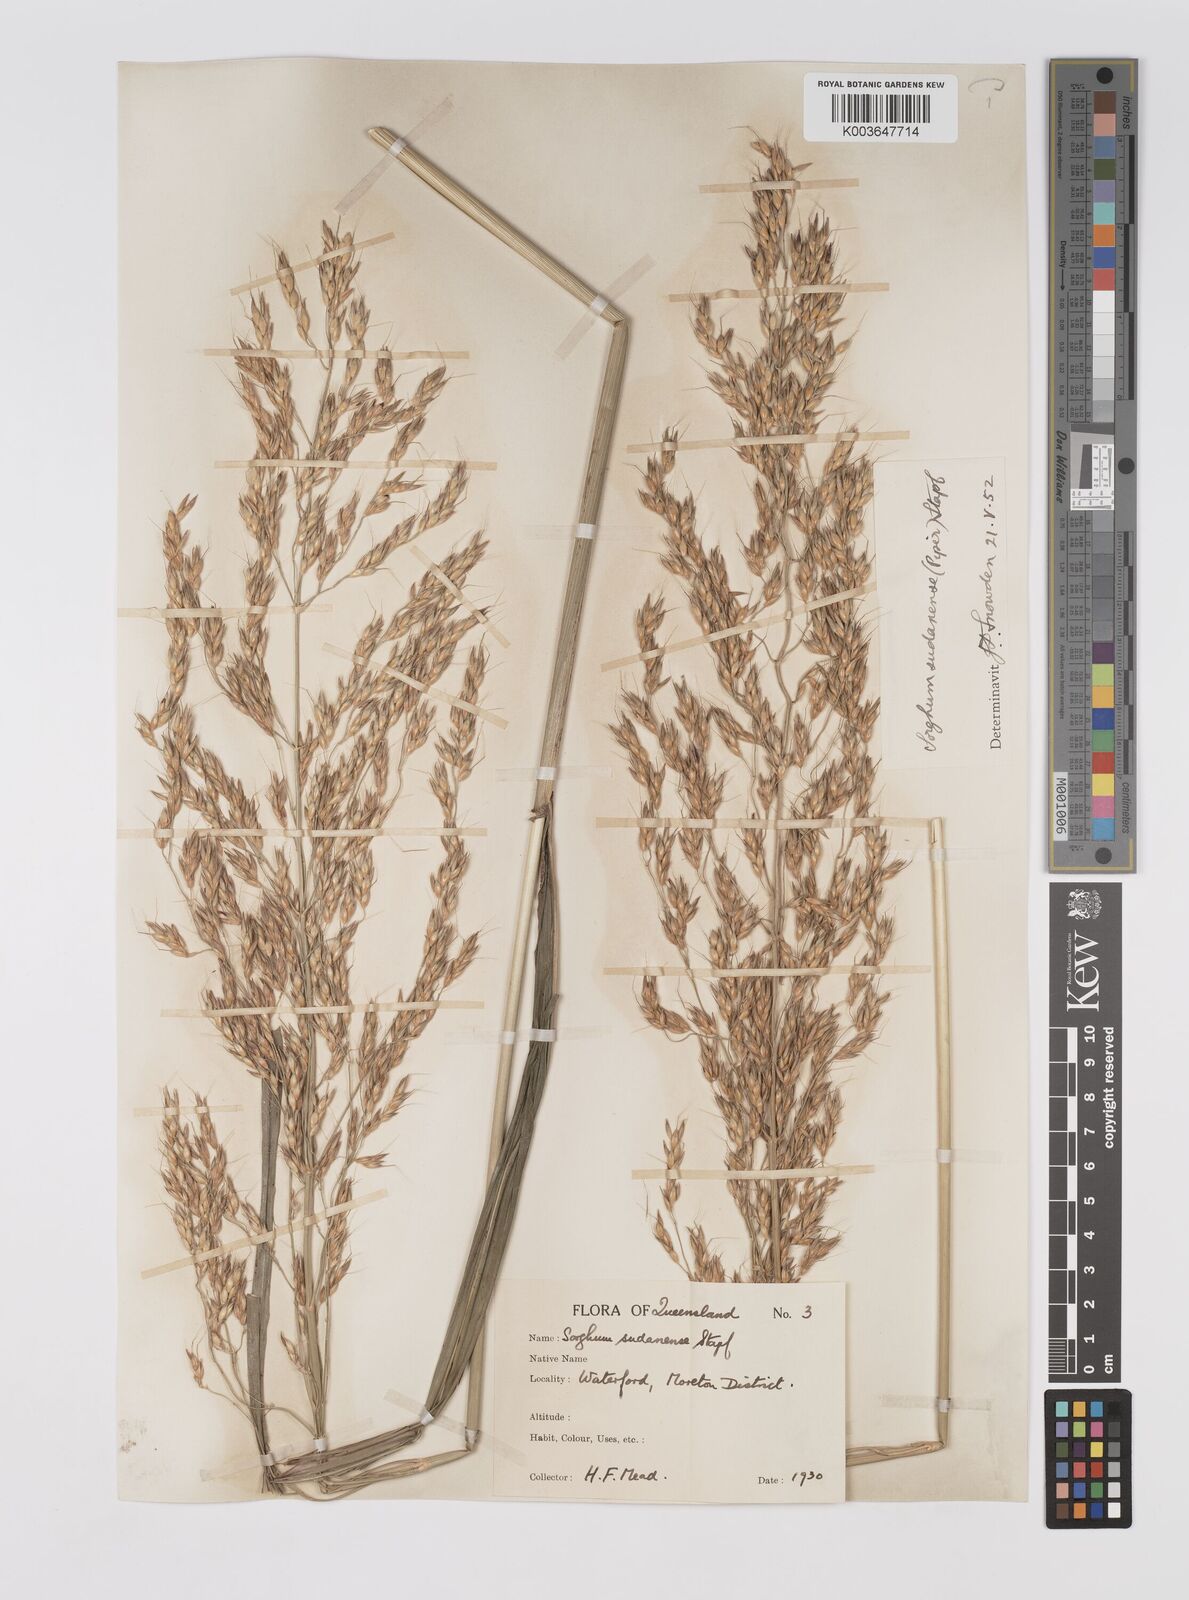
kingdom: Plantae
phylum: Tracheophyta
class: Liliopsida
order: Poales
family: Poaceae
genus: Sorghum
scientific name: Sorghum drummondii
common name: Sudangrass
